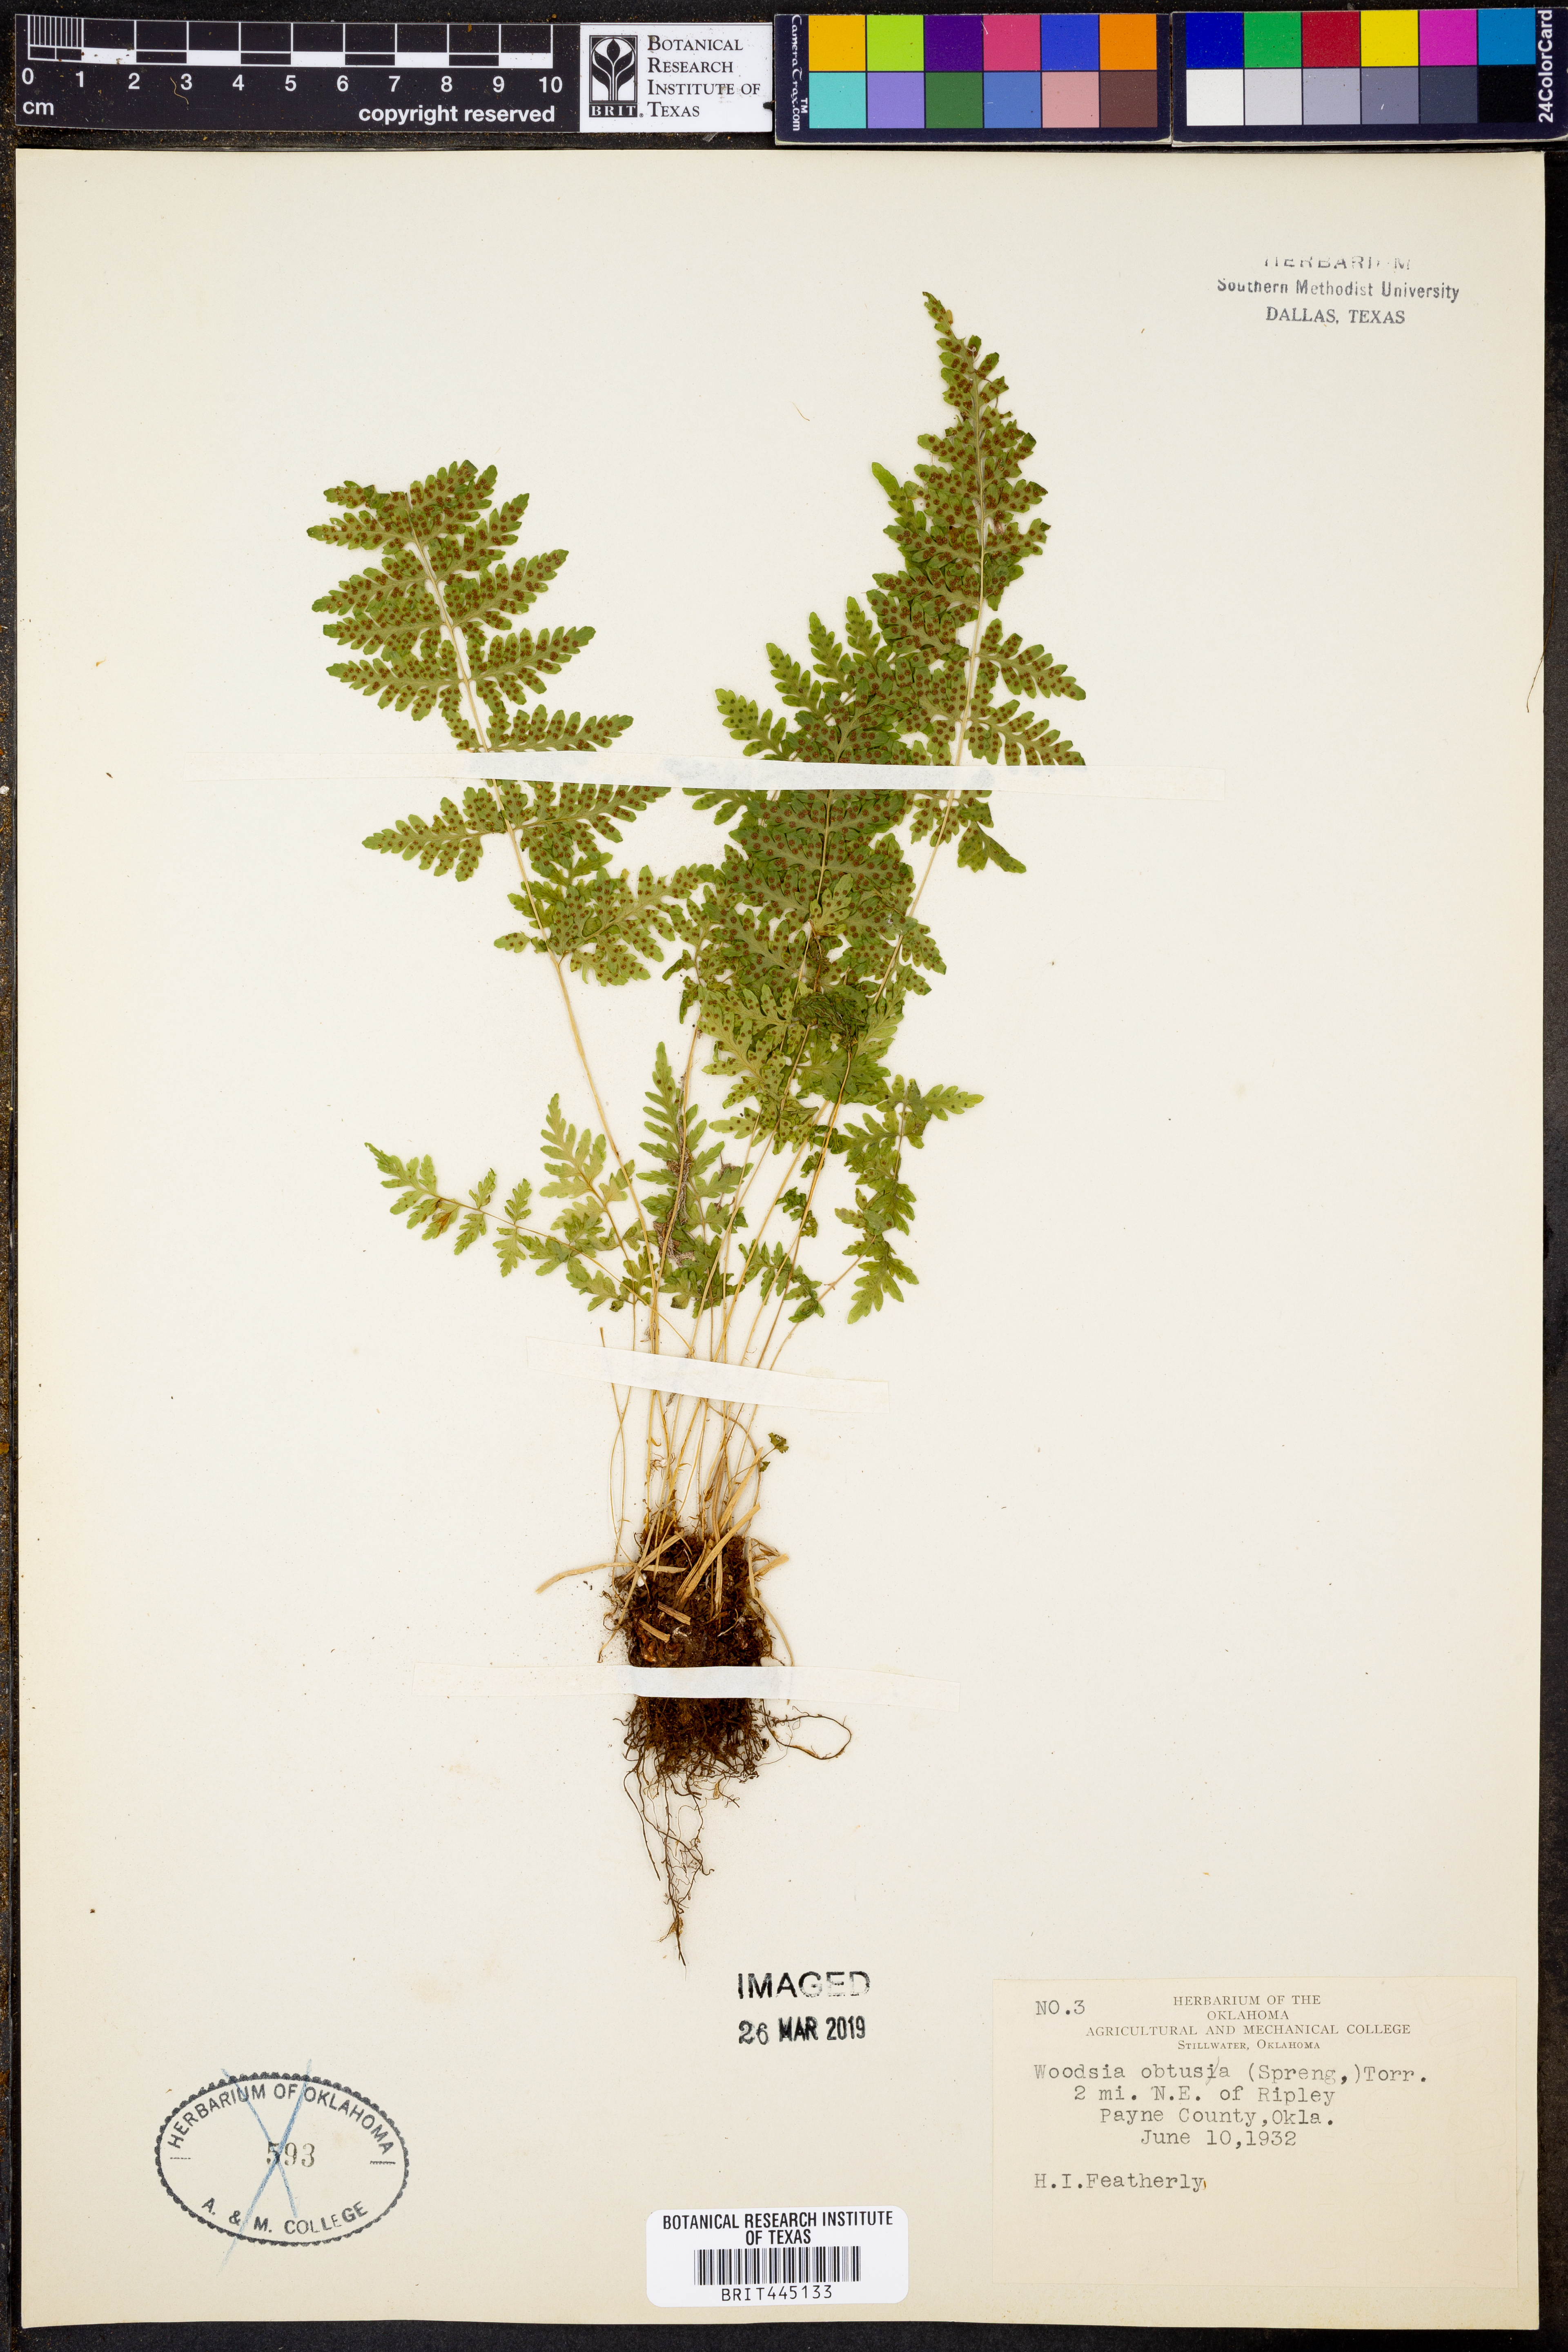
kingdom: Plantae
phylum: Tracheophyta
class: Polypodiopsida
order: Polypodiales
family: Woodsiaceae
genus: Physematium
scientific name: Physematium obtusum
